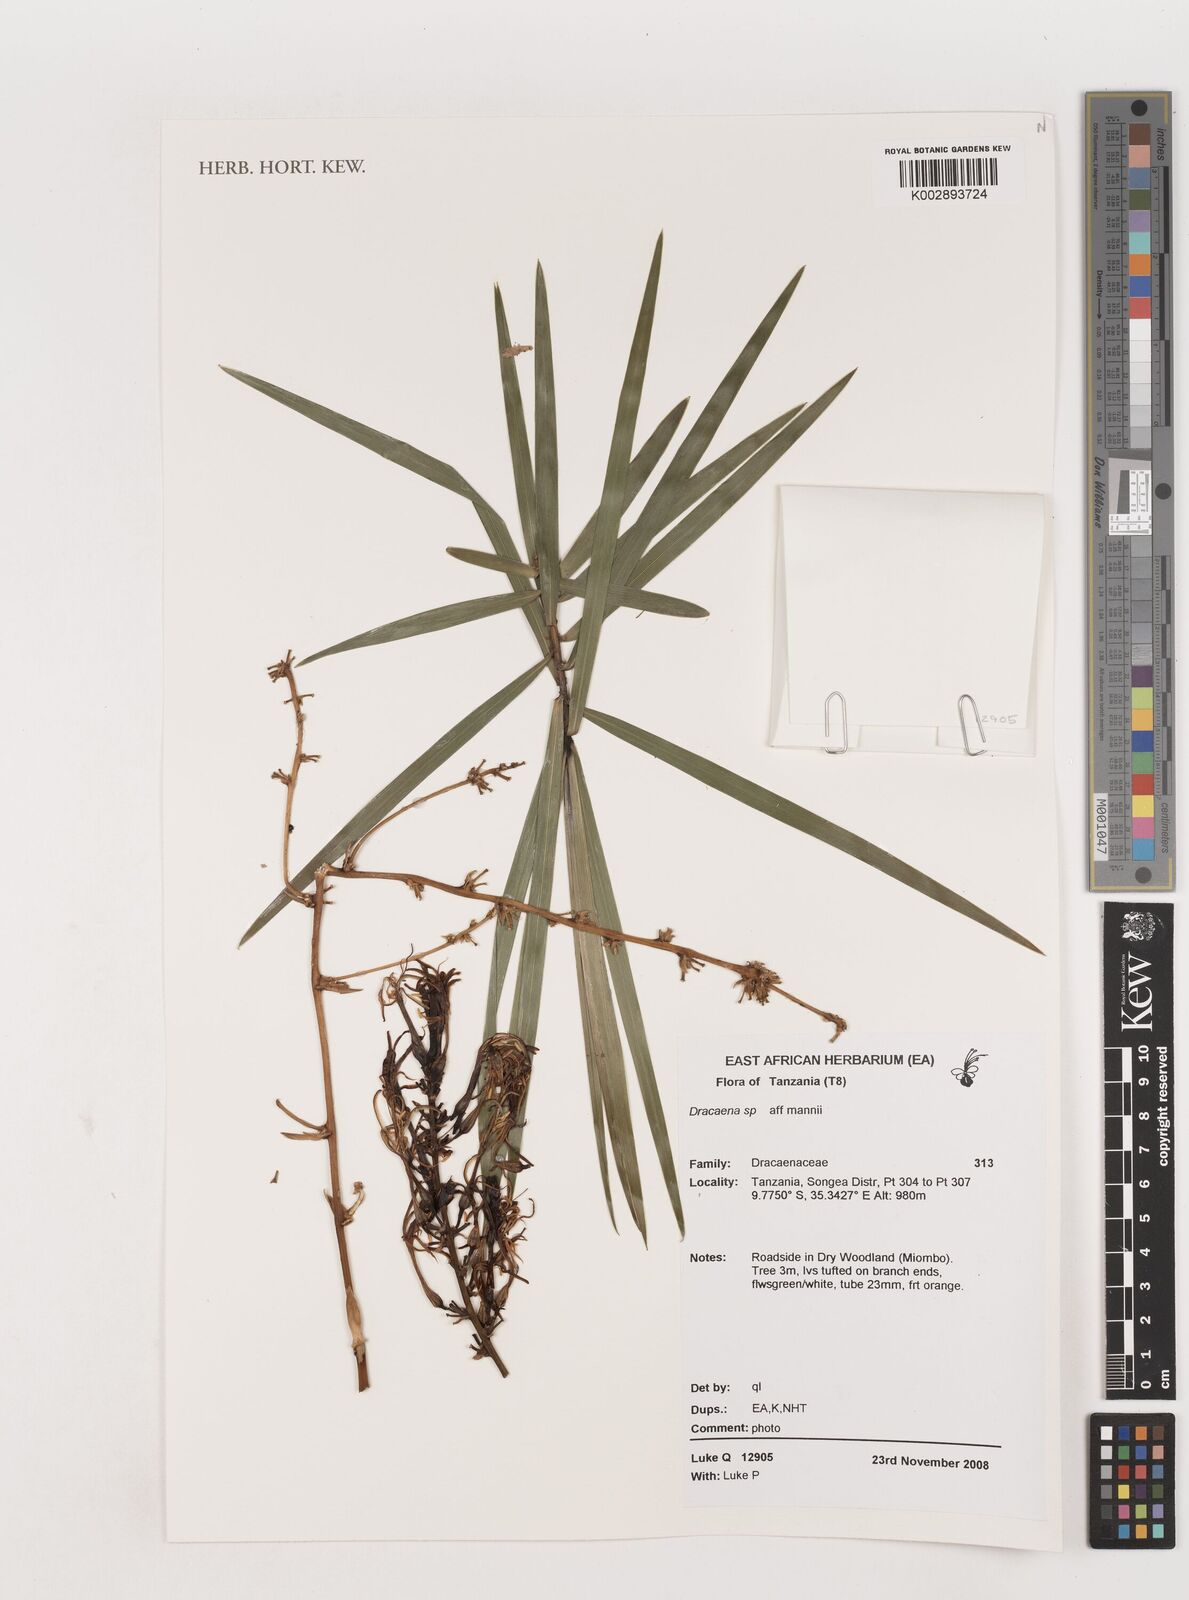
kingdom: Plantae
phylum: Tracheophyta
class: Liliopsida
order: Asparagales
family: Asparagaceae
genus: Dracaena
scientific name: Dracaena mannii
